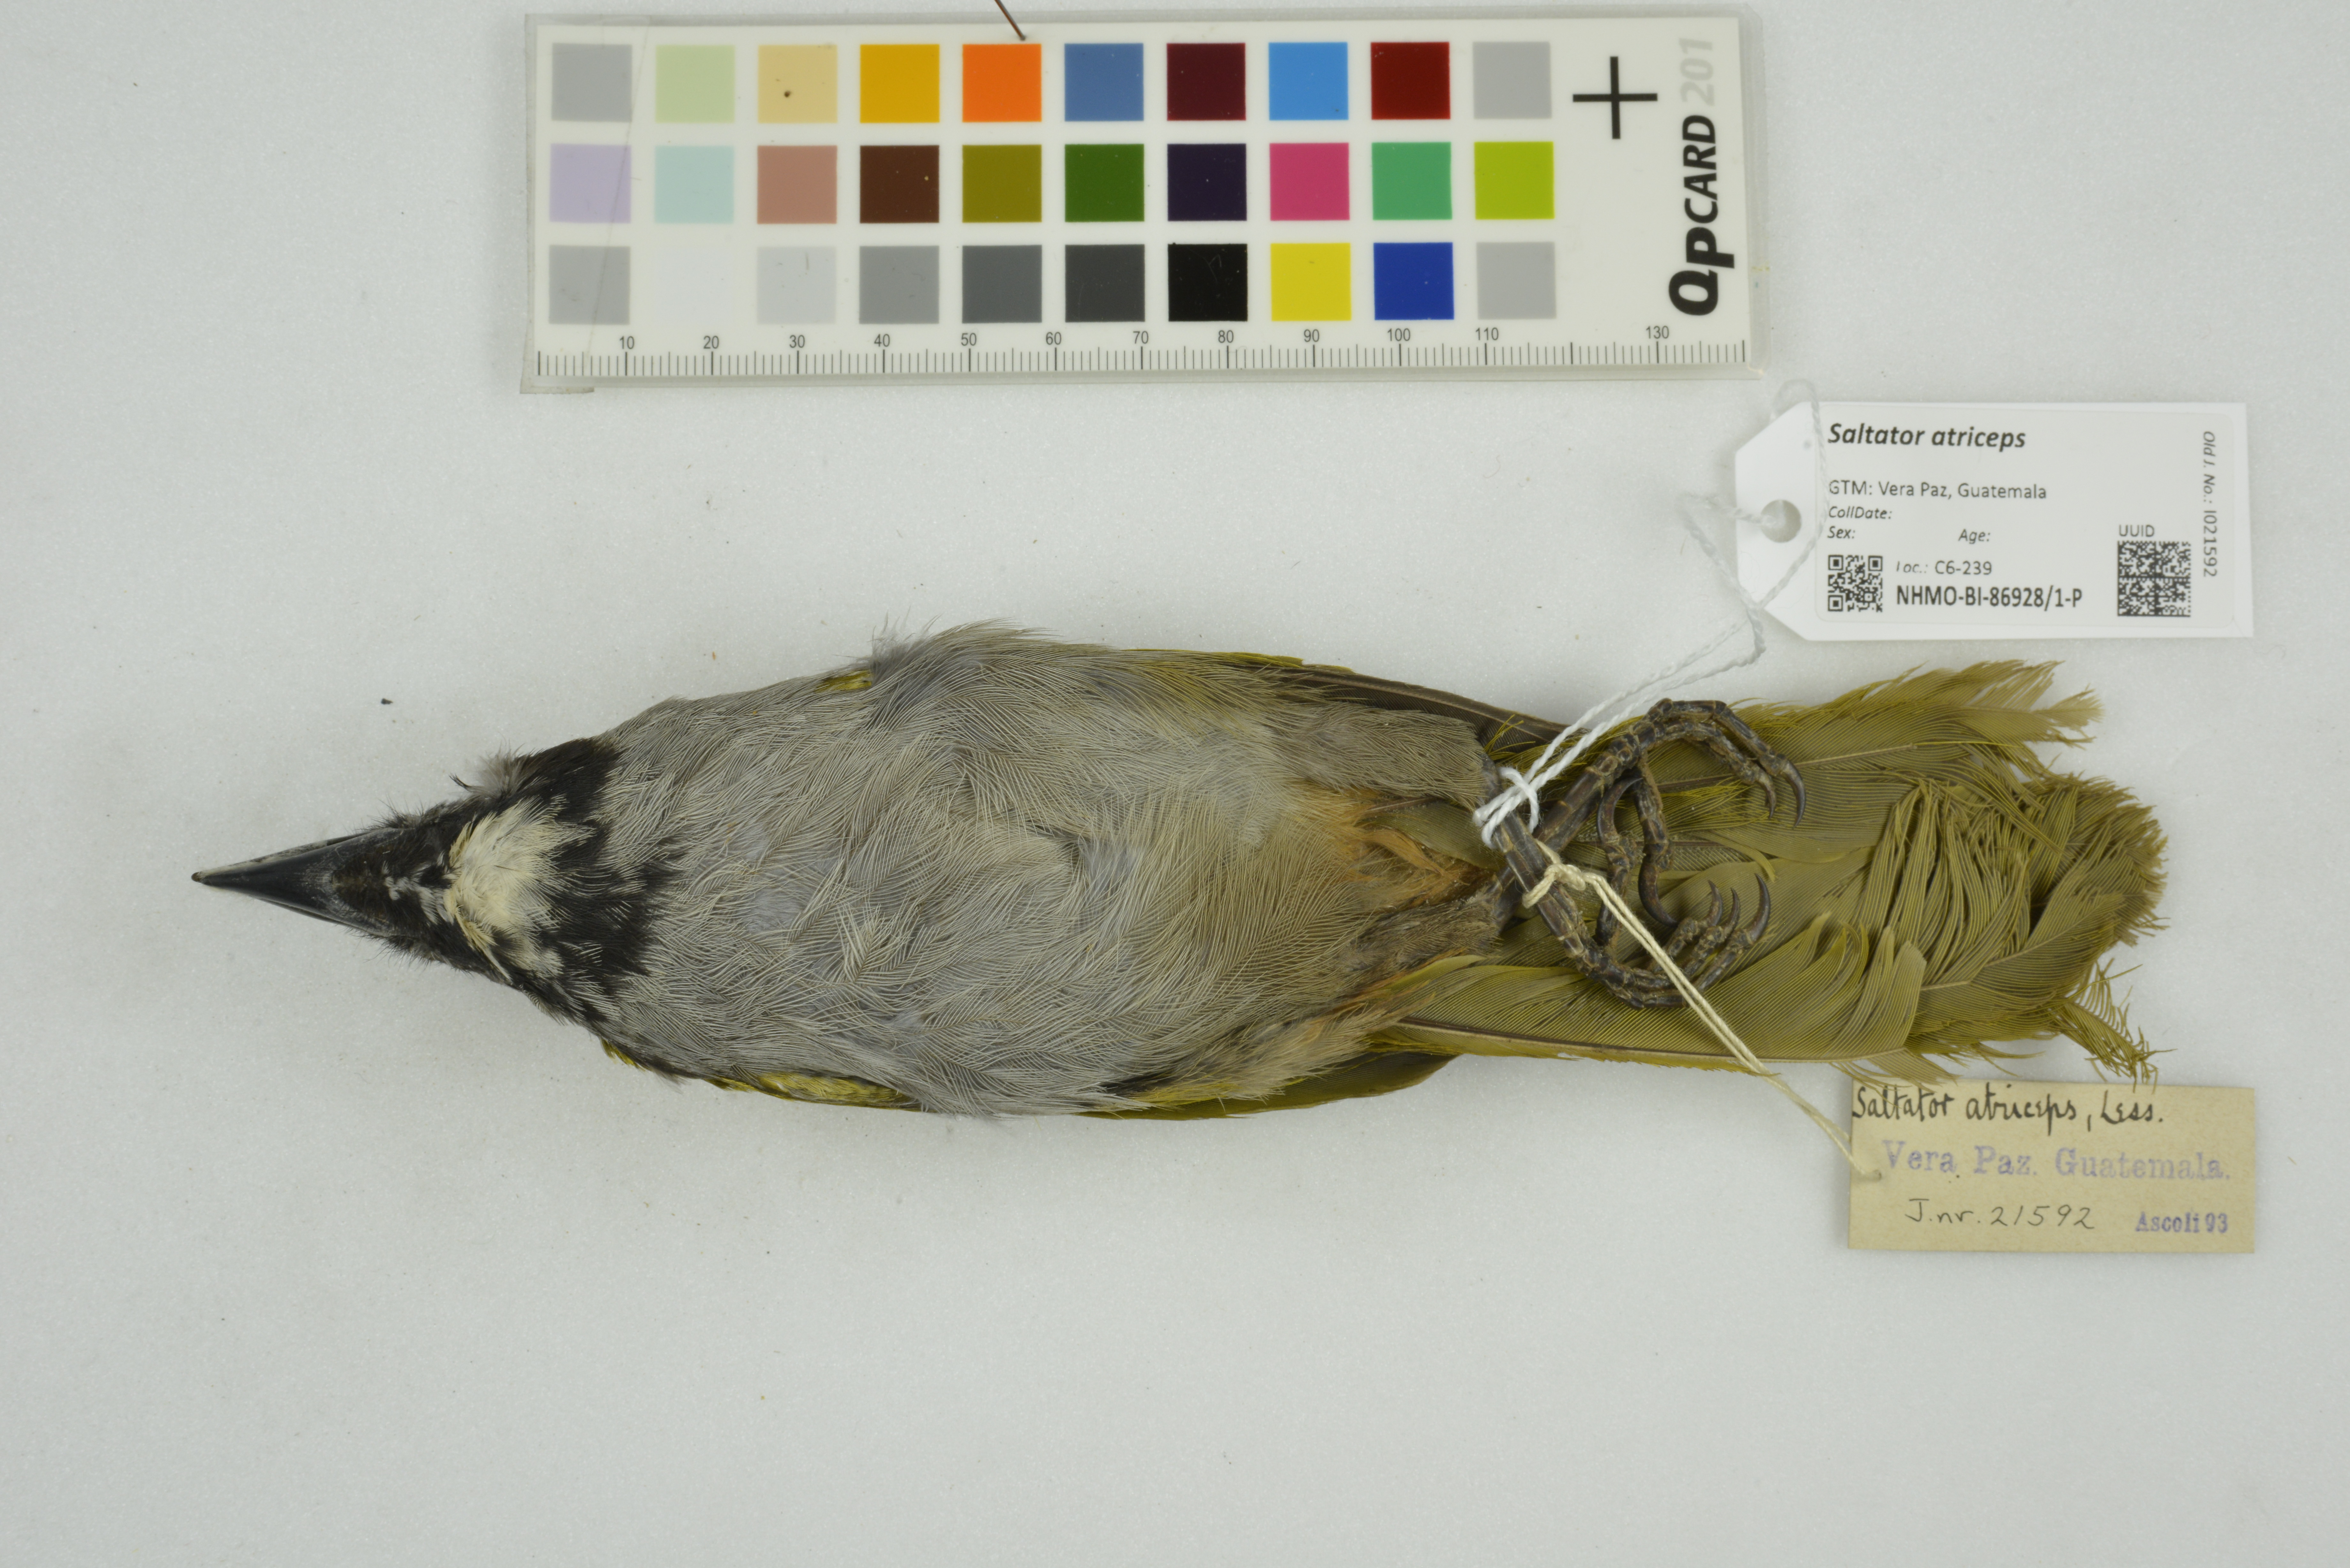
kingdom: Animalia
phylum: Chordata
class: Aves
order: Passeriformes
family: Thraupidae
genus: Saltator
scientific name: Saltator atriceps
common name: Black-headed saltator
